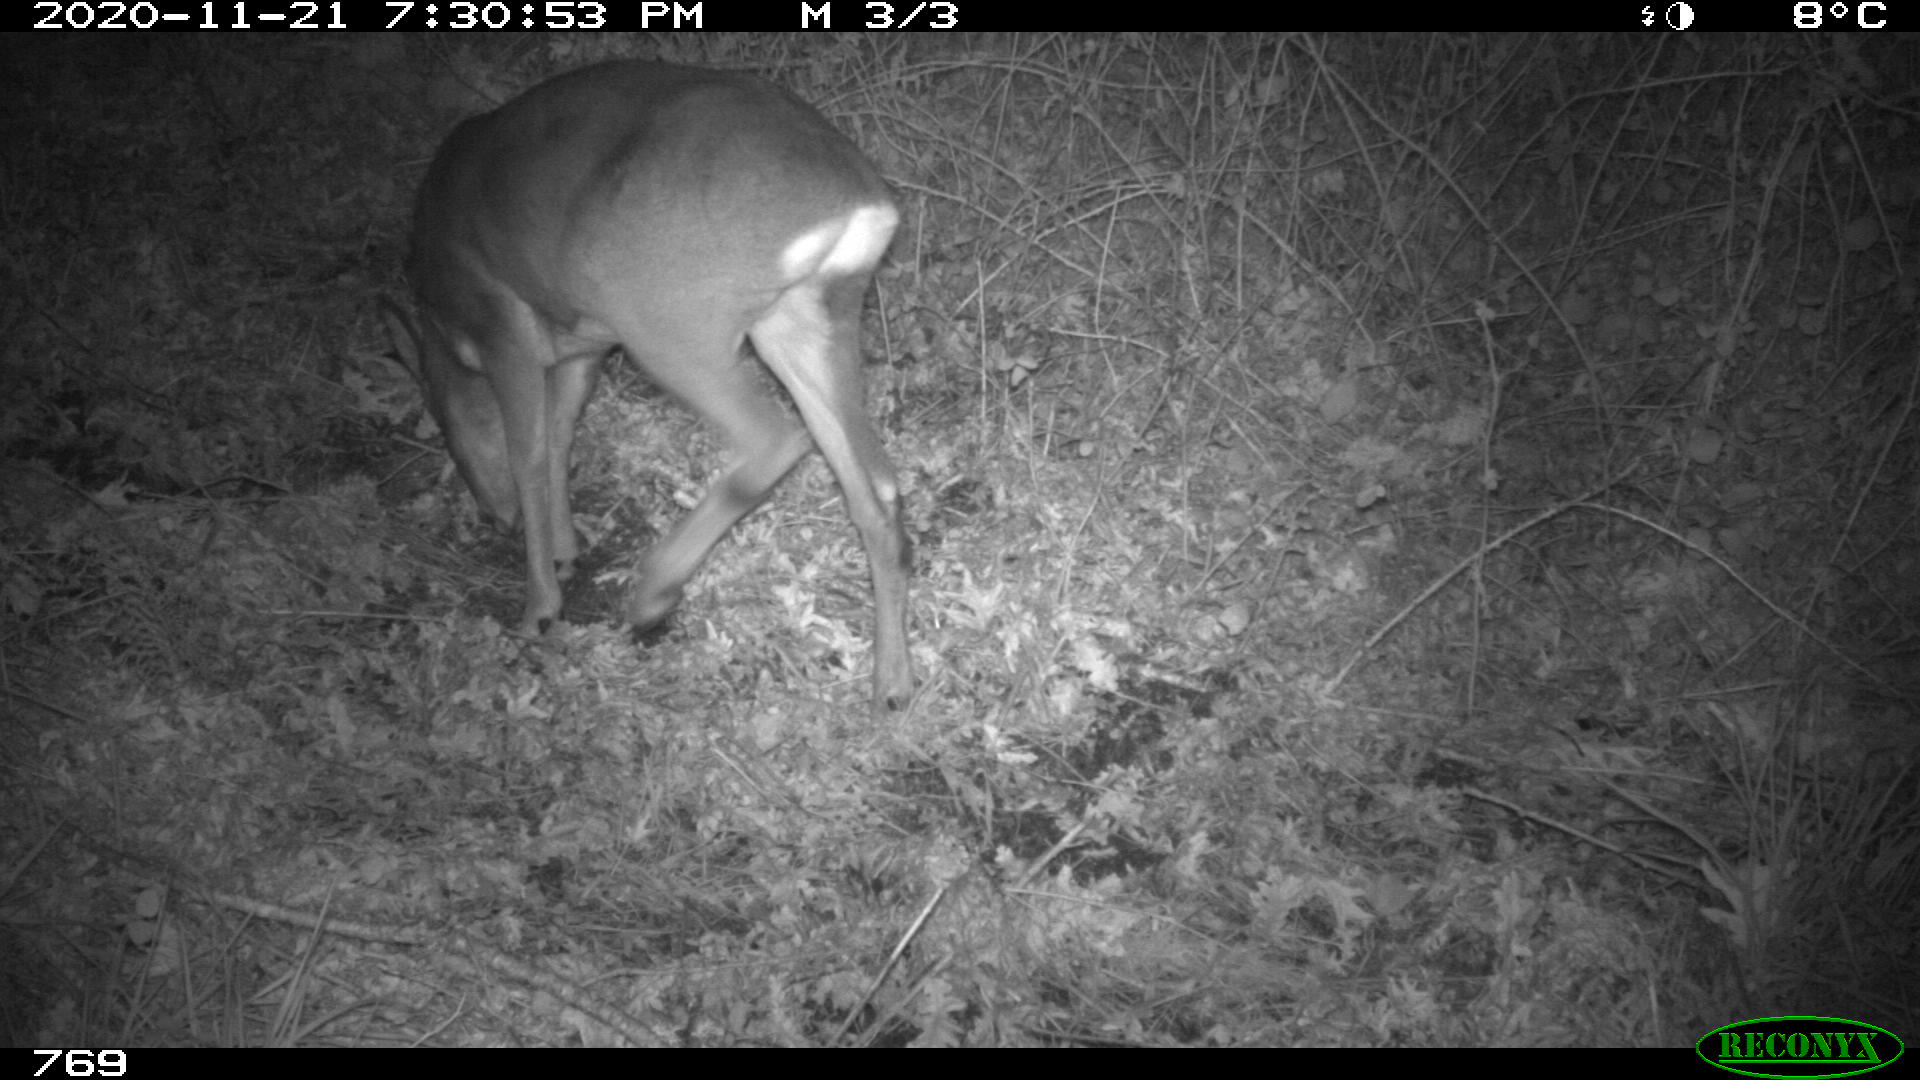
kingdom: Animalia
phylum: Chordata
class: Mammalia
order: Artiodactyla
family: Cervidae
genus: Capreolus
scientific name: Capreolus capreolus
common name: Western roe deer
